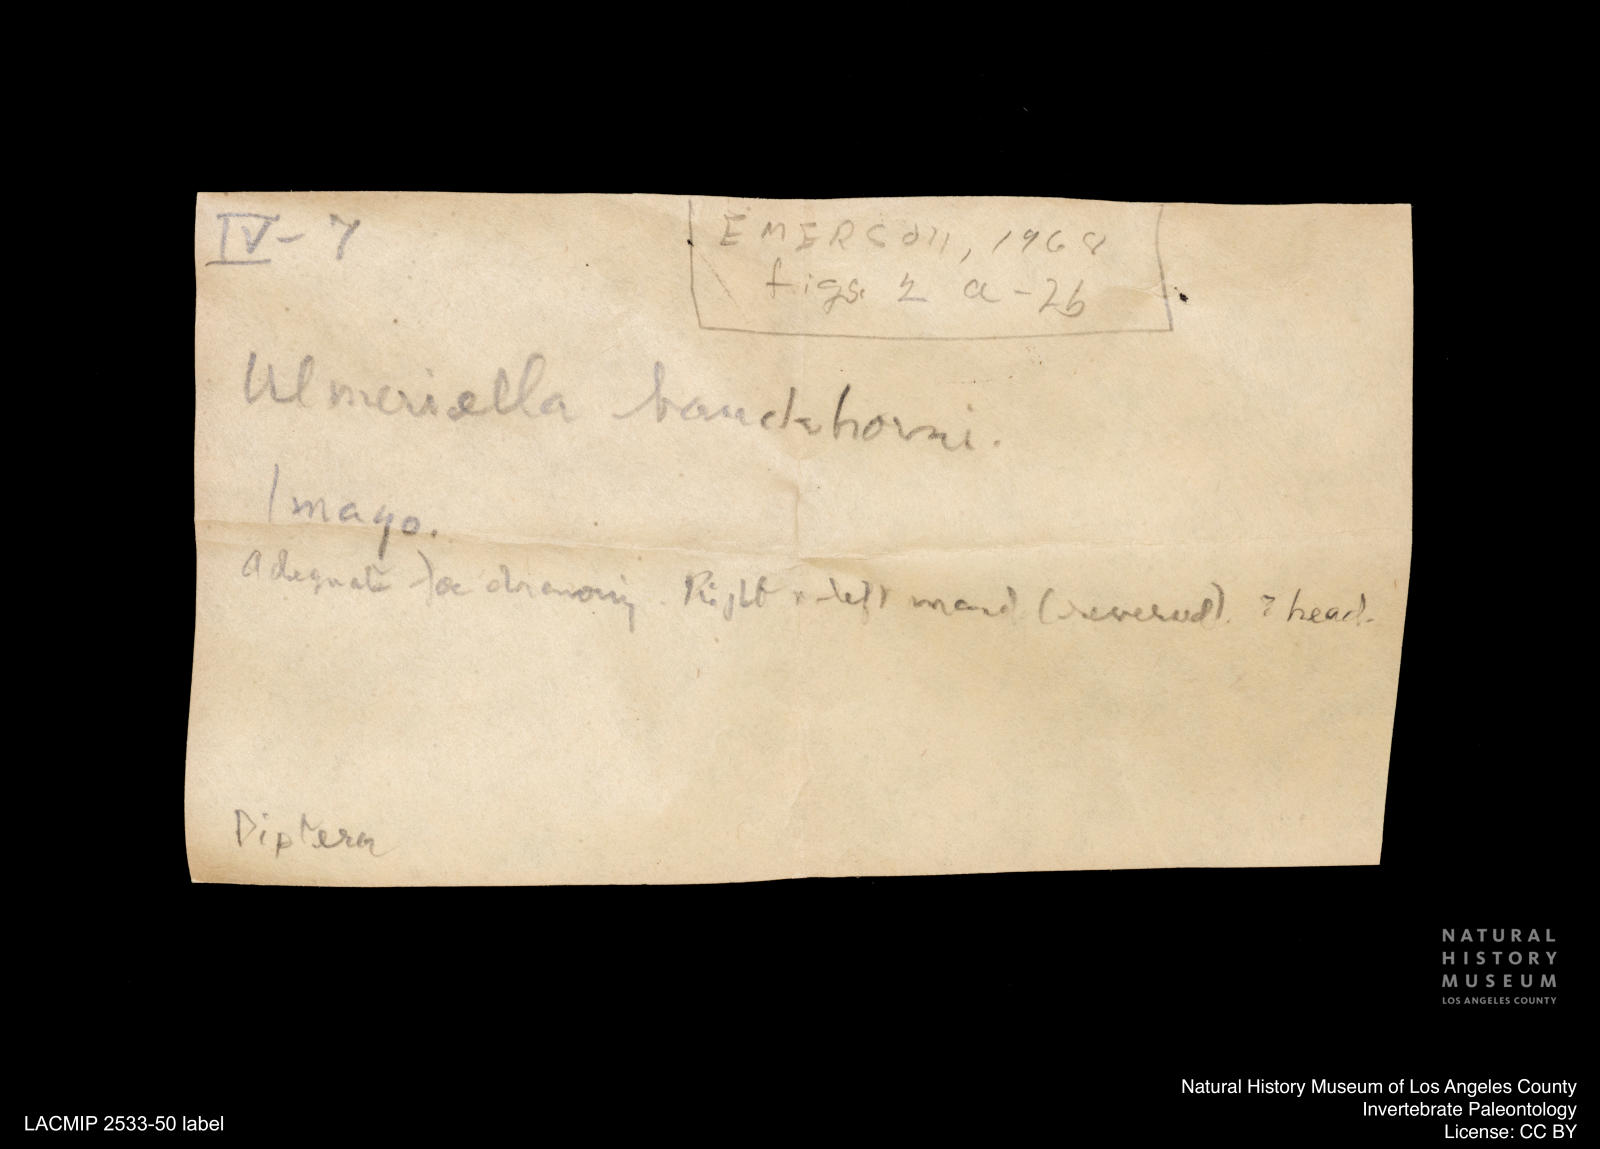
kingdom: Animalia
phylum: Arthropoda
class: Insecta
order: Blattodea
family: Hodotermitidae
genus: Ulmeriella
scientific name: Ulmeriella bauckhorni
